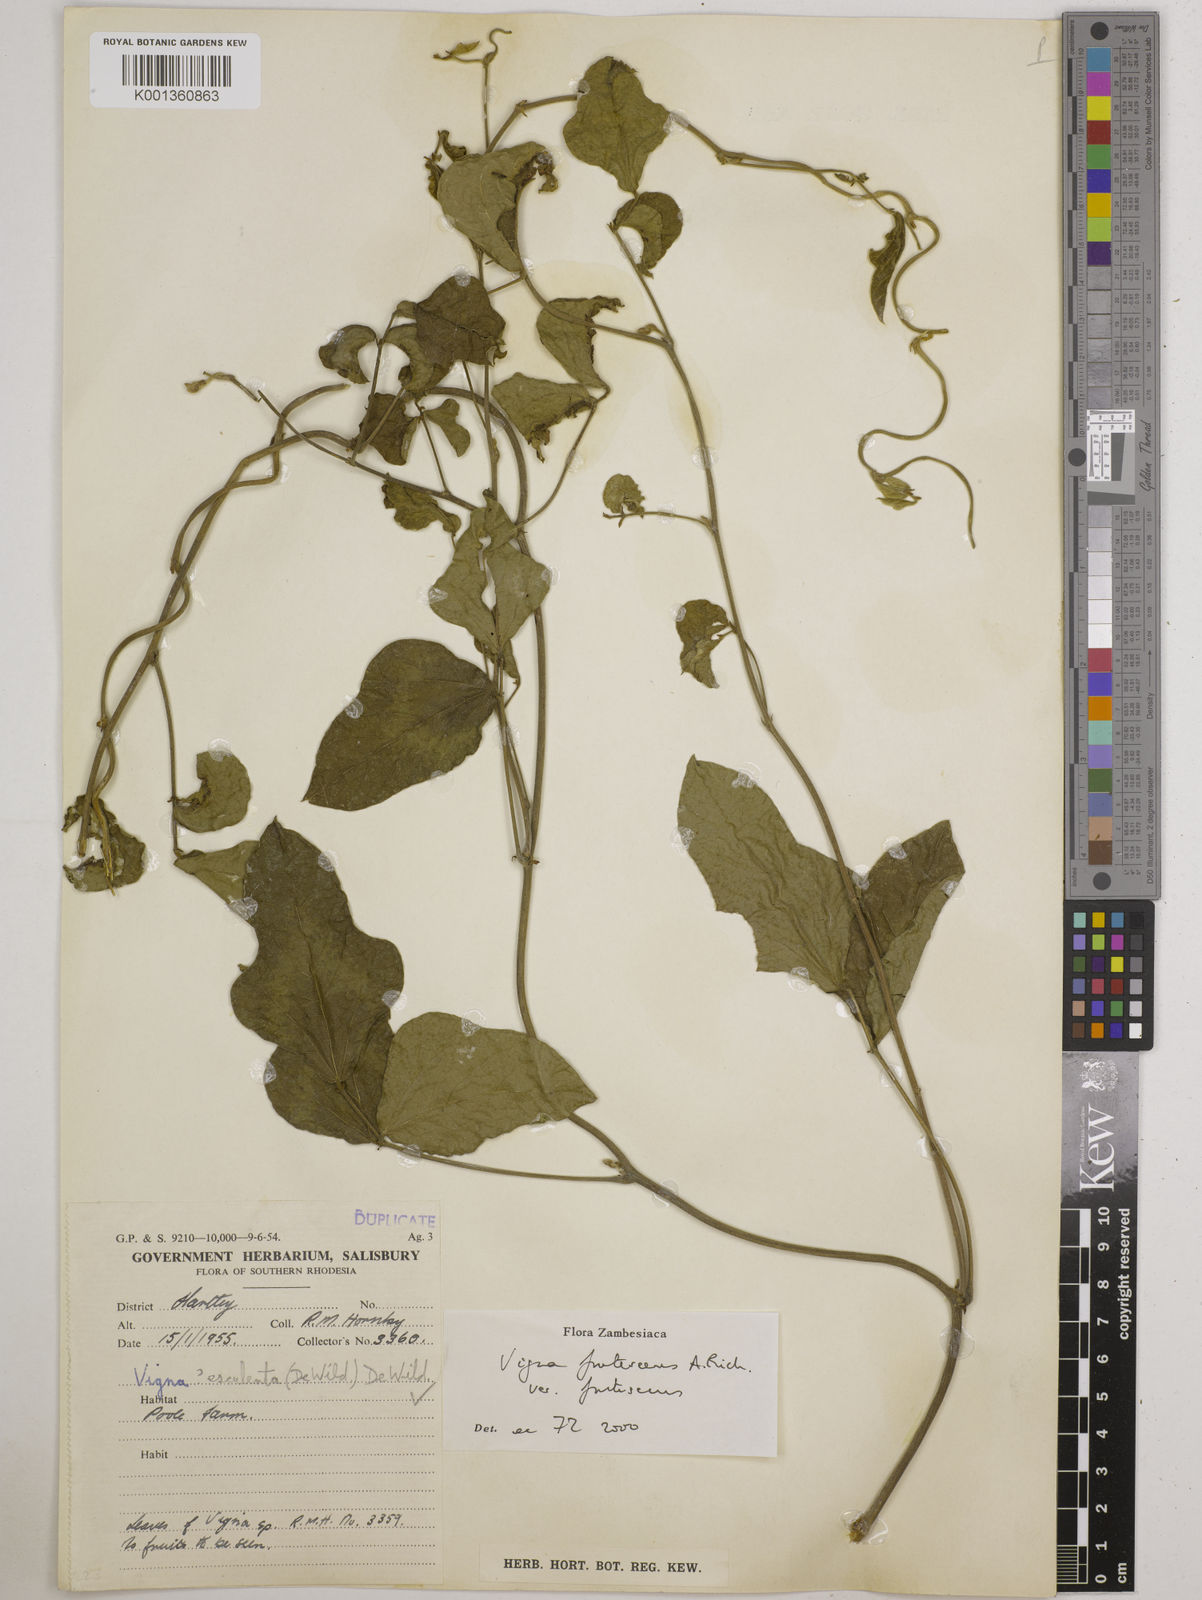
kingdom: Plantae
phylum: Tracheophyta
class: Magnoliopsida
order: Fabales
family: Fabaceae
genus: Vigna
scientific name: Vigna
